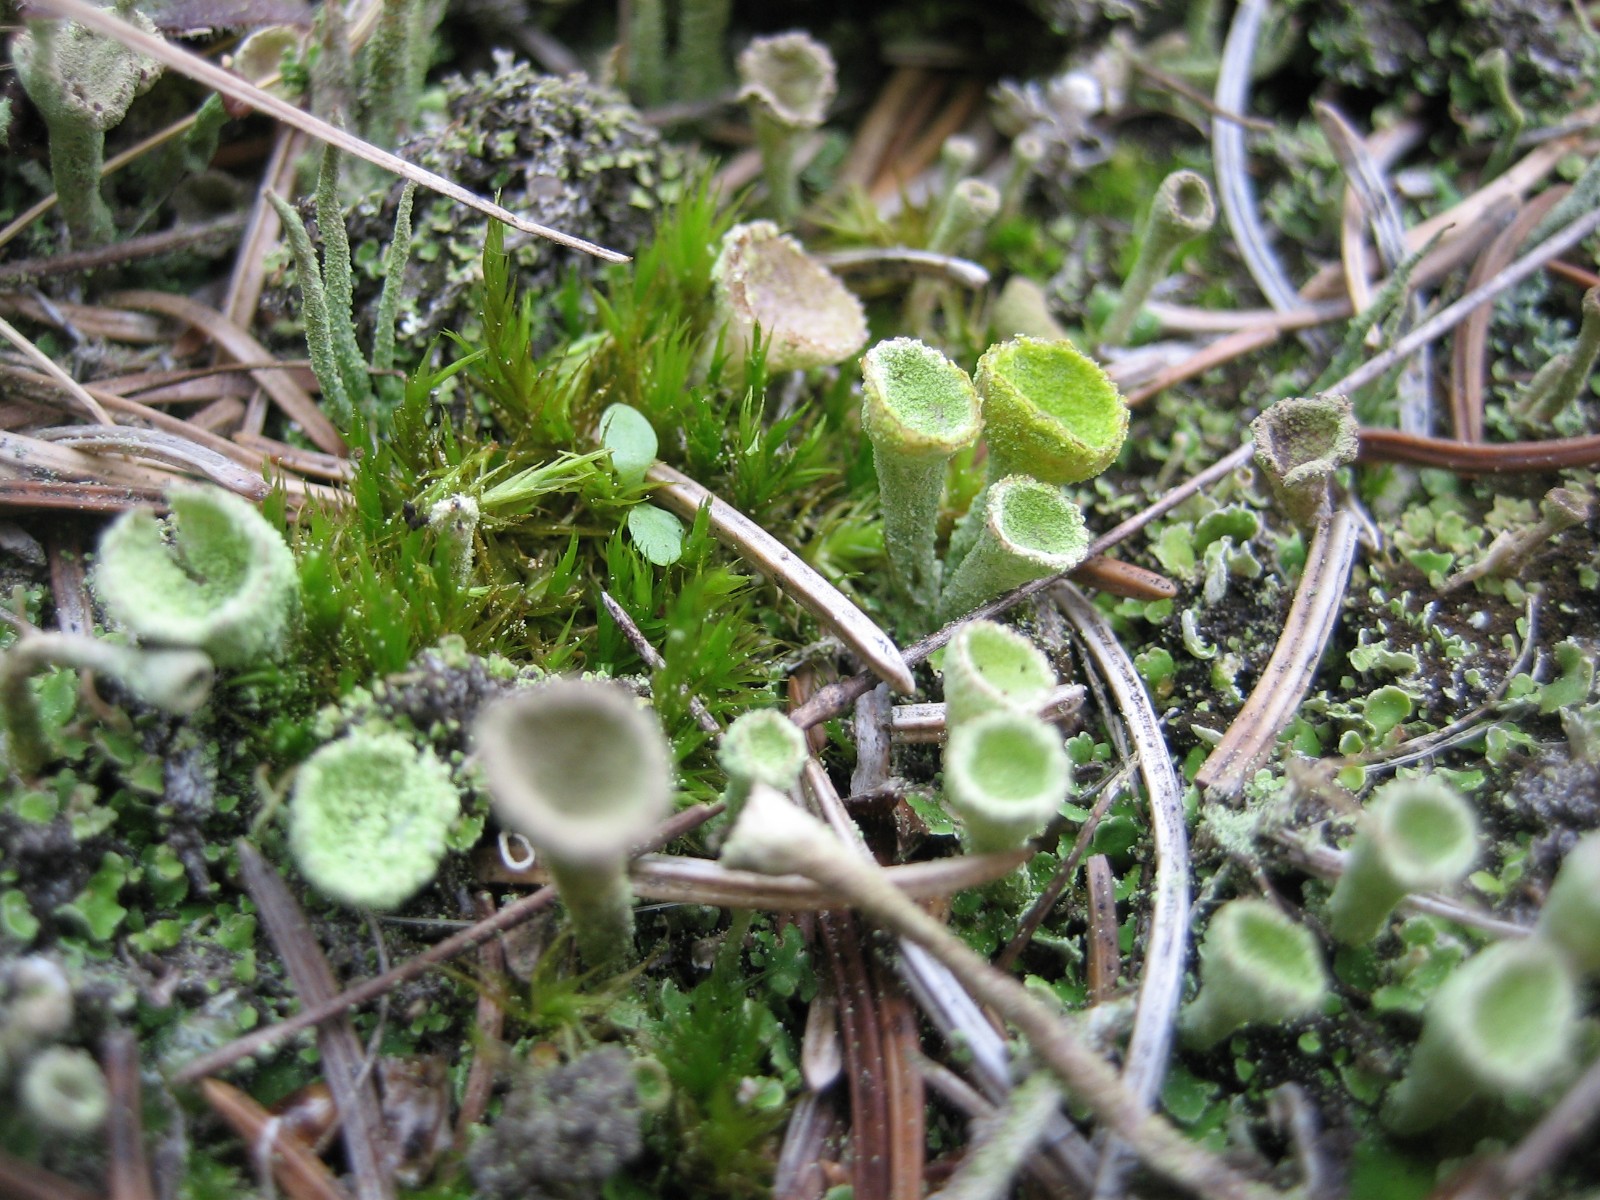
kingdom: Fungi
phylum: Ascomycota
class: Lecanoromycetes
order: Lecanorales
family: Cladoniaceae
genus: Cladonia
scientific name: Cladonia humilis
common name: lav bægerlav
